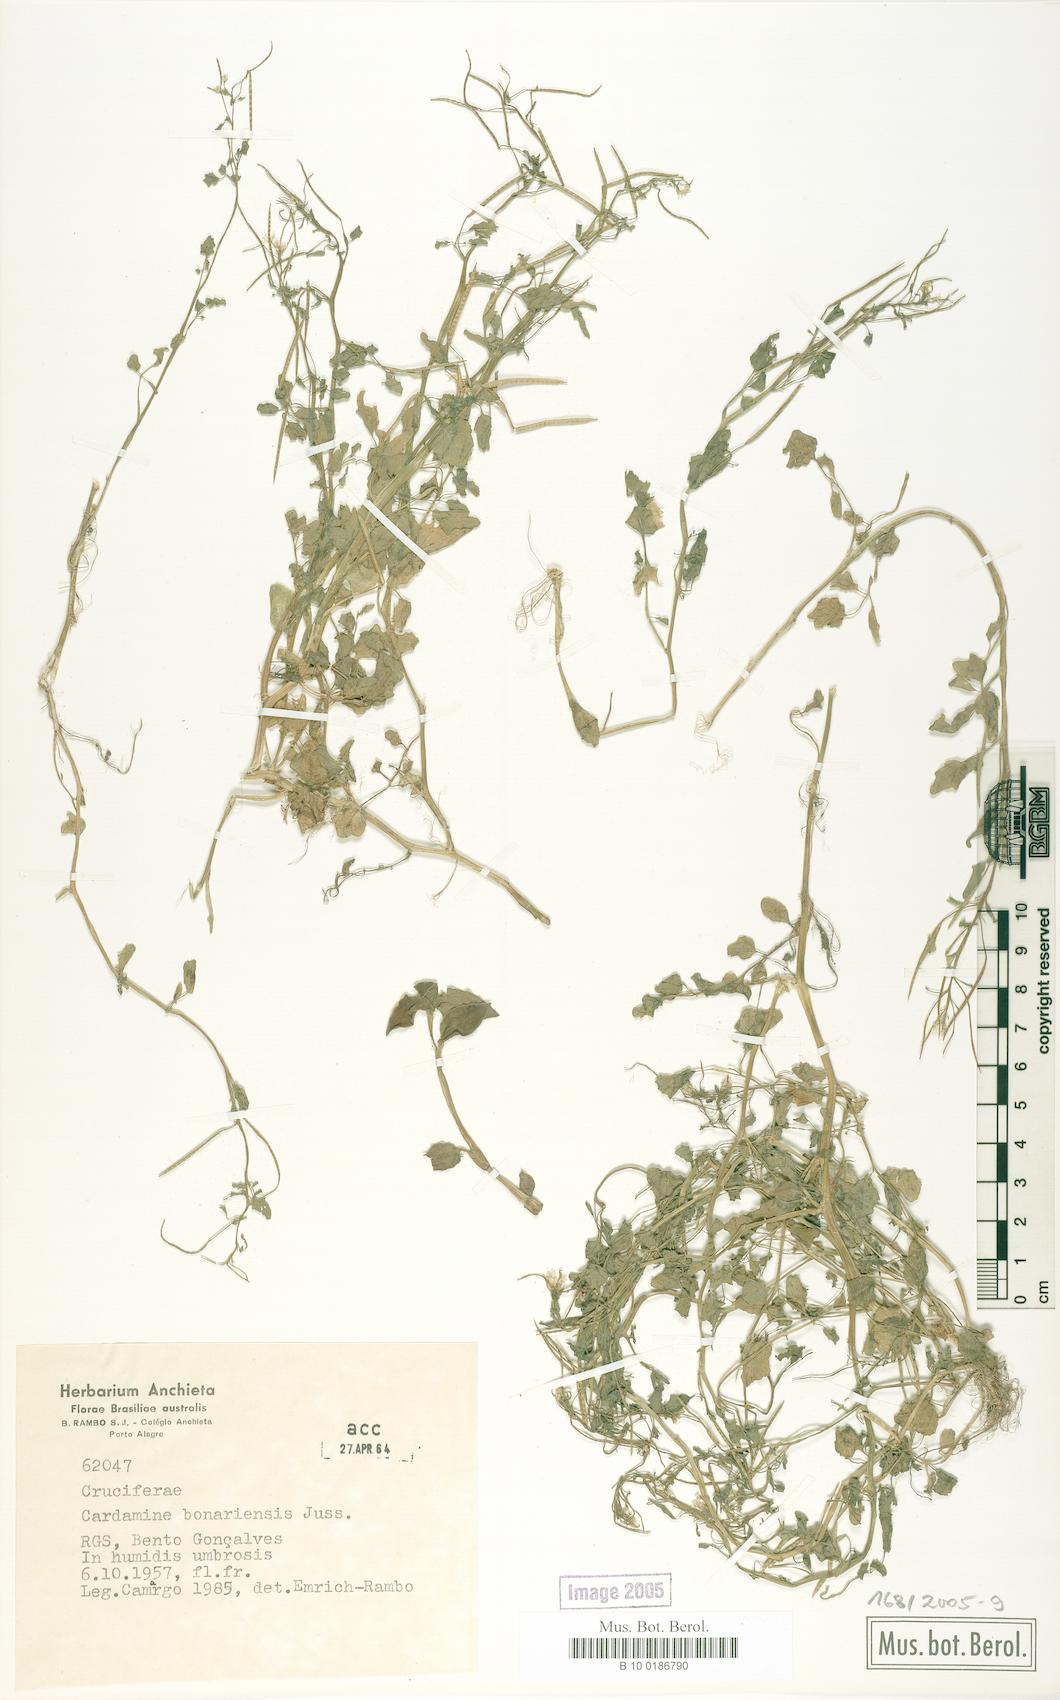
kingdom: Plantae
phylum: Tracheophyta
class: Magnoliopsida
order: Brassicales
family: Brassicaceae
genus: Cardamine
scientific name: Cardamine bonariensis
